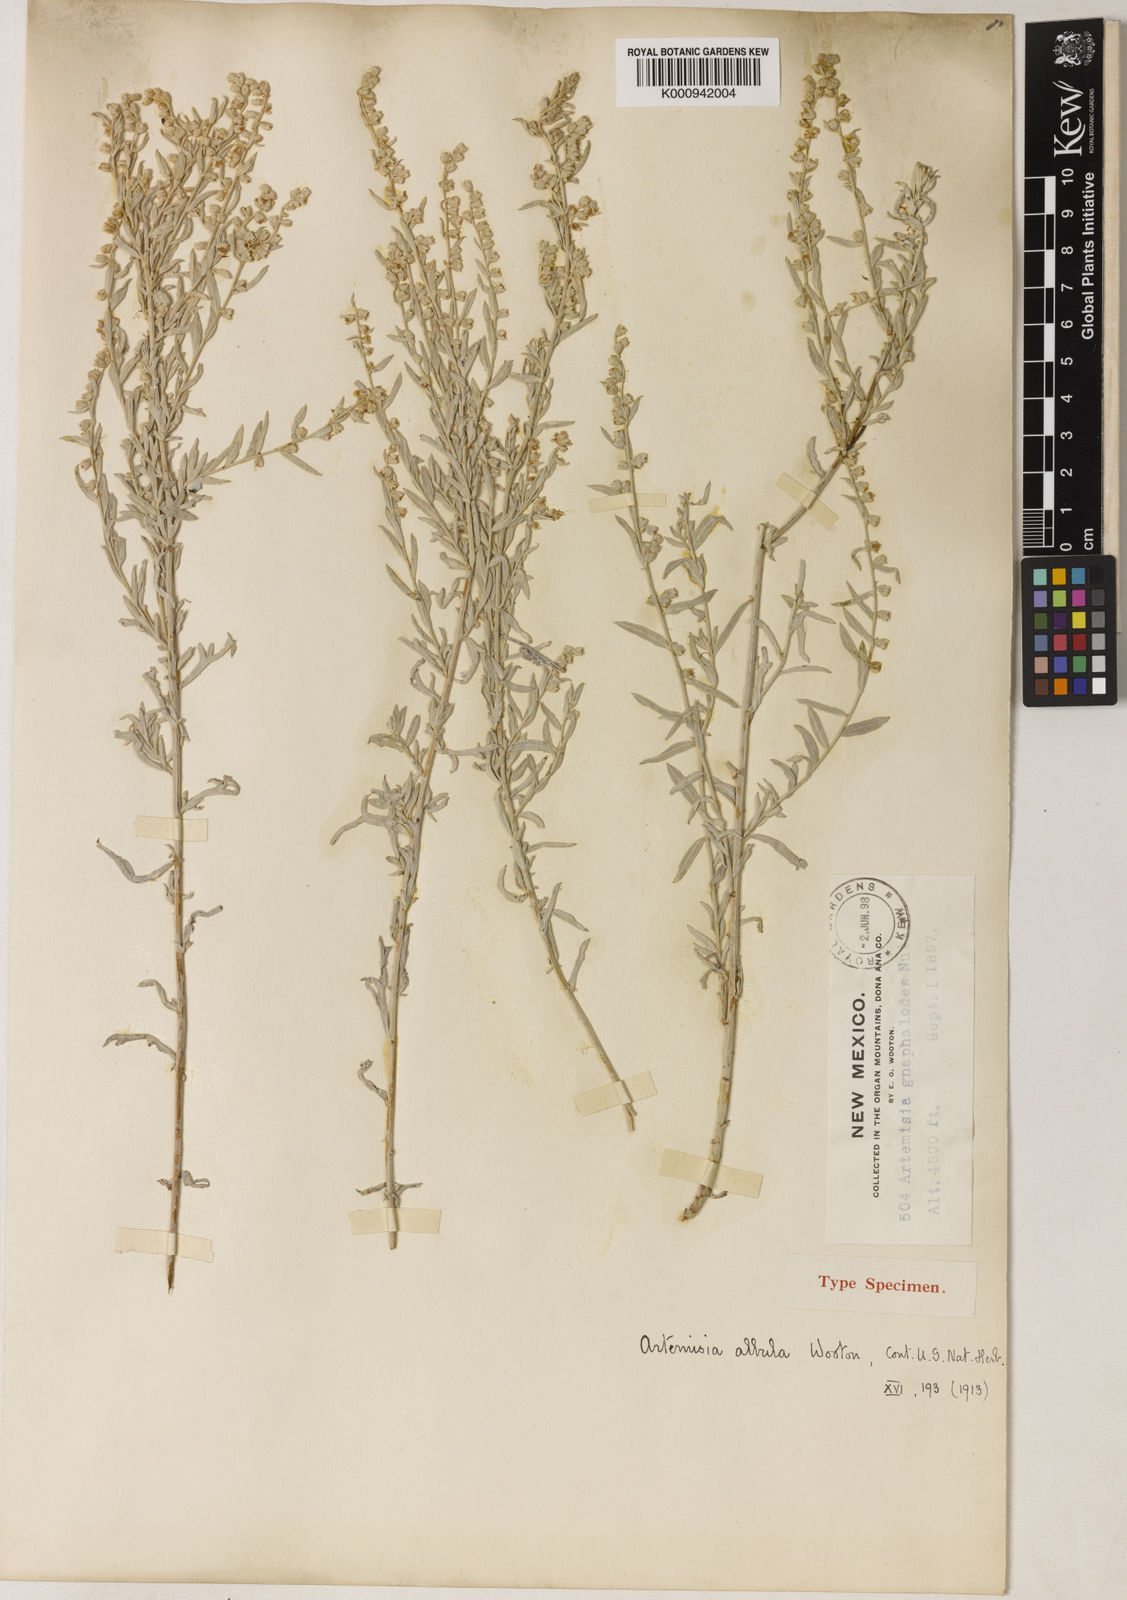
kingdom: Plantae
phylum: Tracheophyta
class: Magnoliopsida
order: Asterales
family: Asteraceae
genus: Artemisia
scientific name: Artemisia
